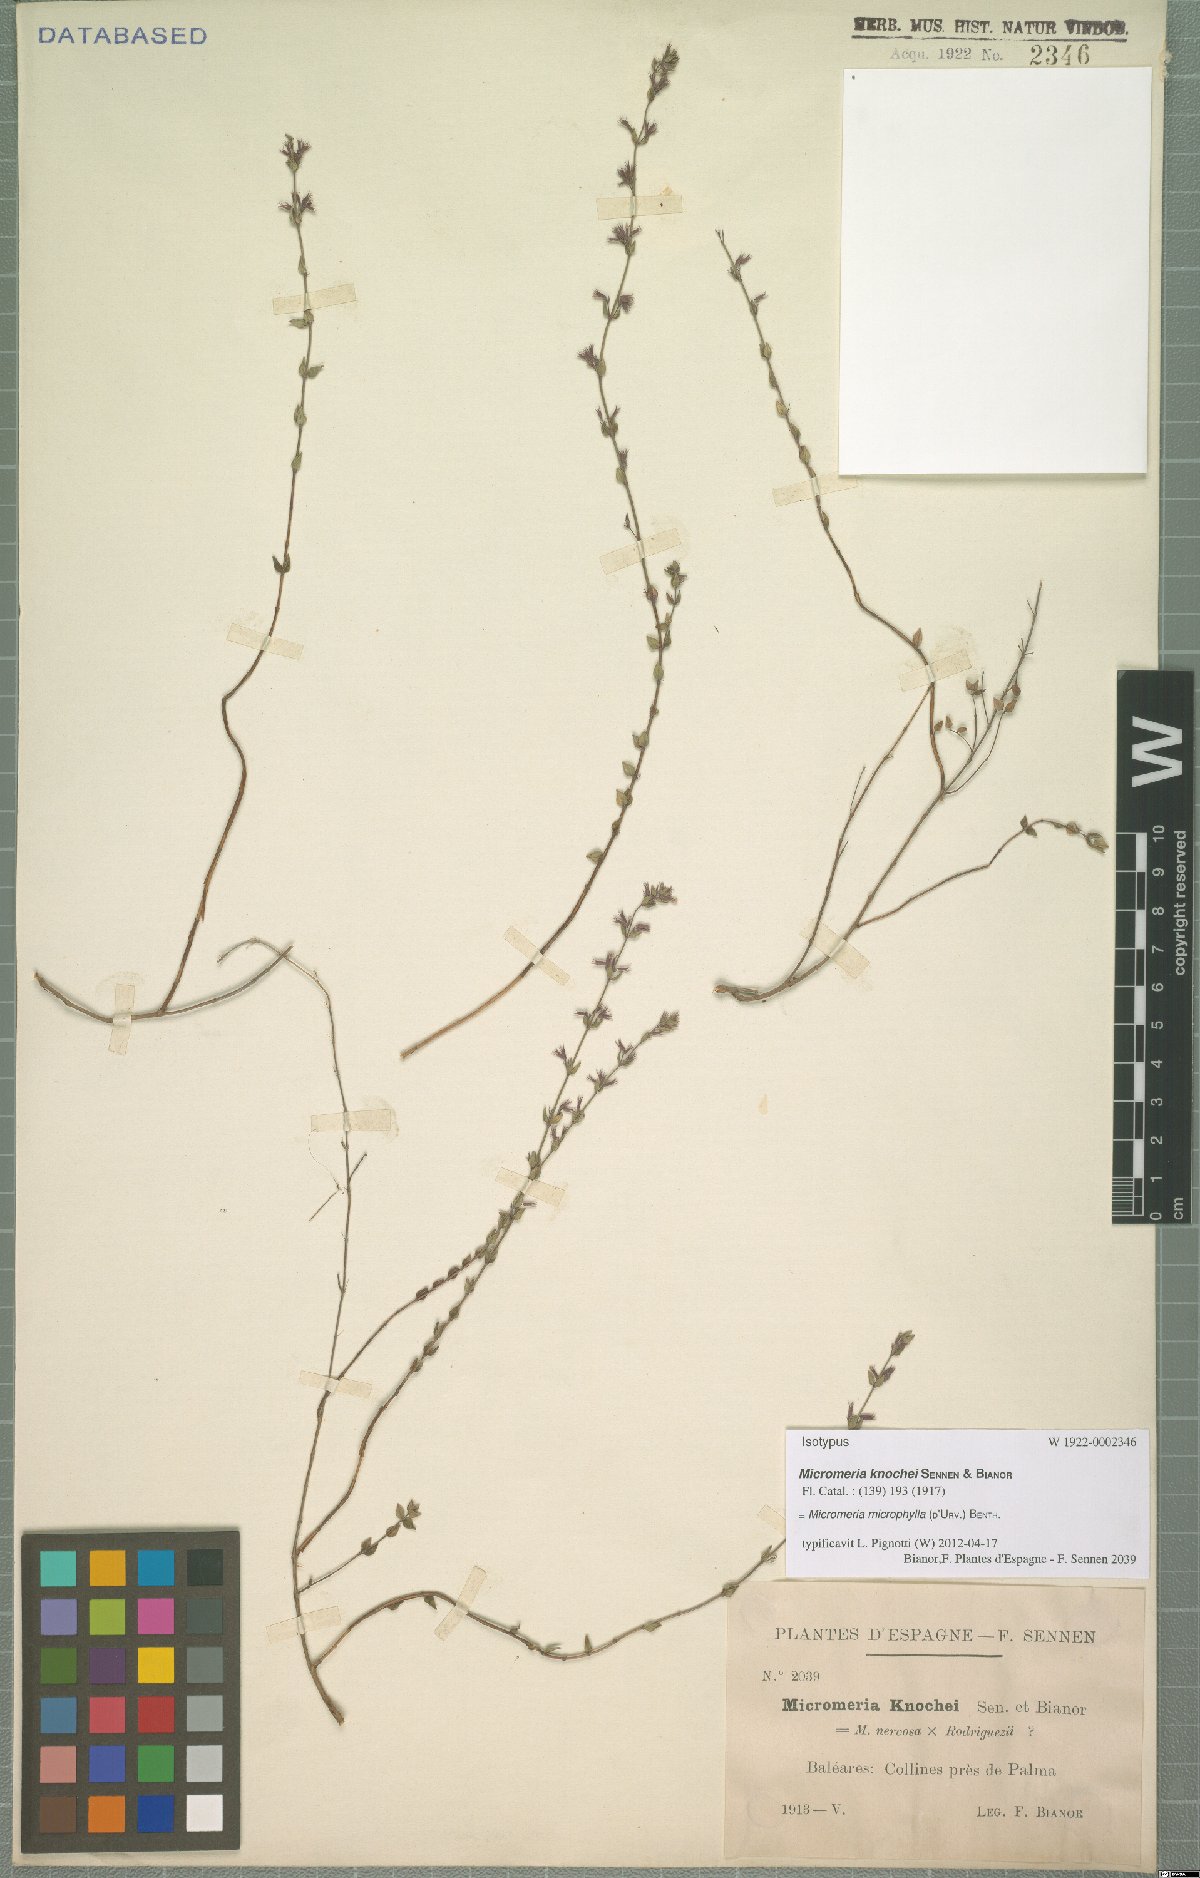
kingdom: Plantae
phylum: Tracheophyta
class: Magnoliopsida
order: Lamiales
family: Lamiaceae
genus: Micromeria
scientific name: Micromeria microphylla
